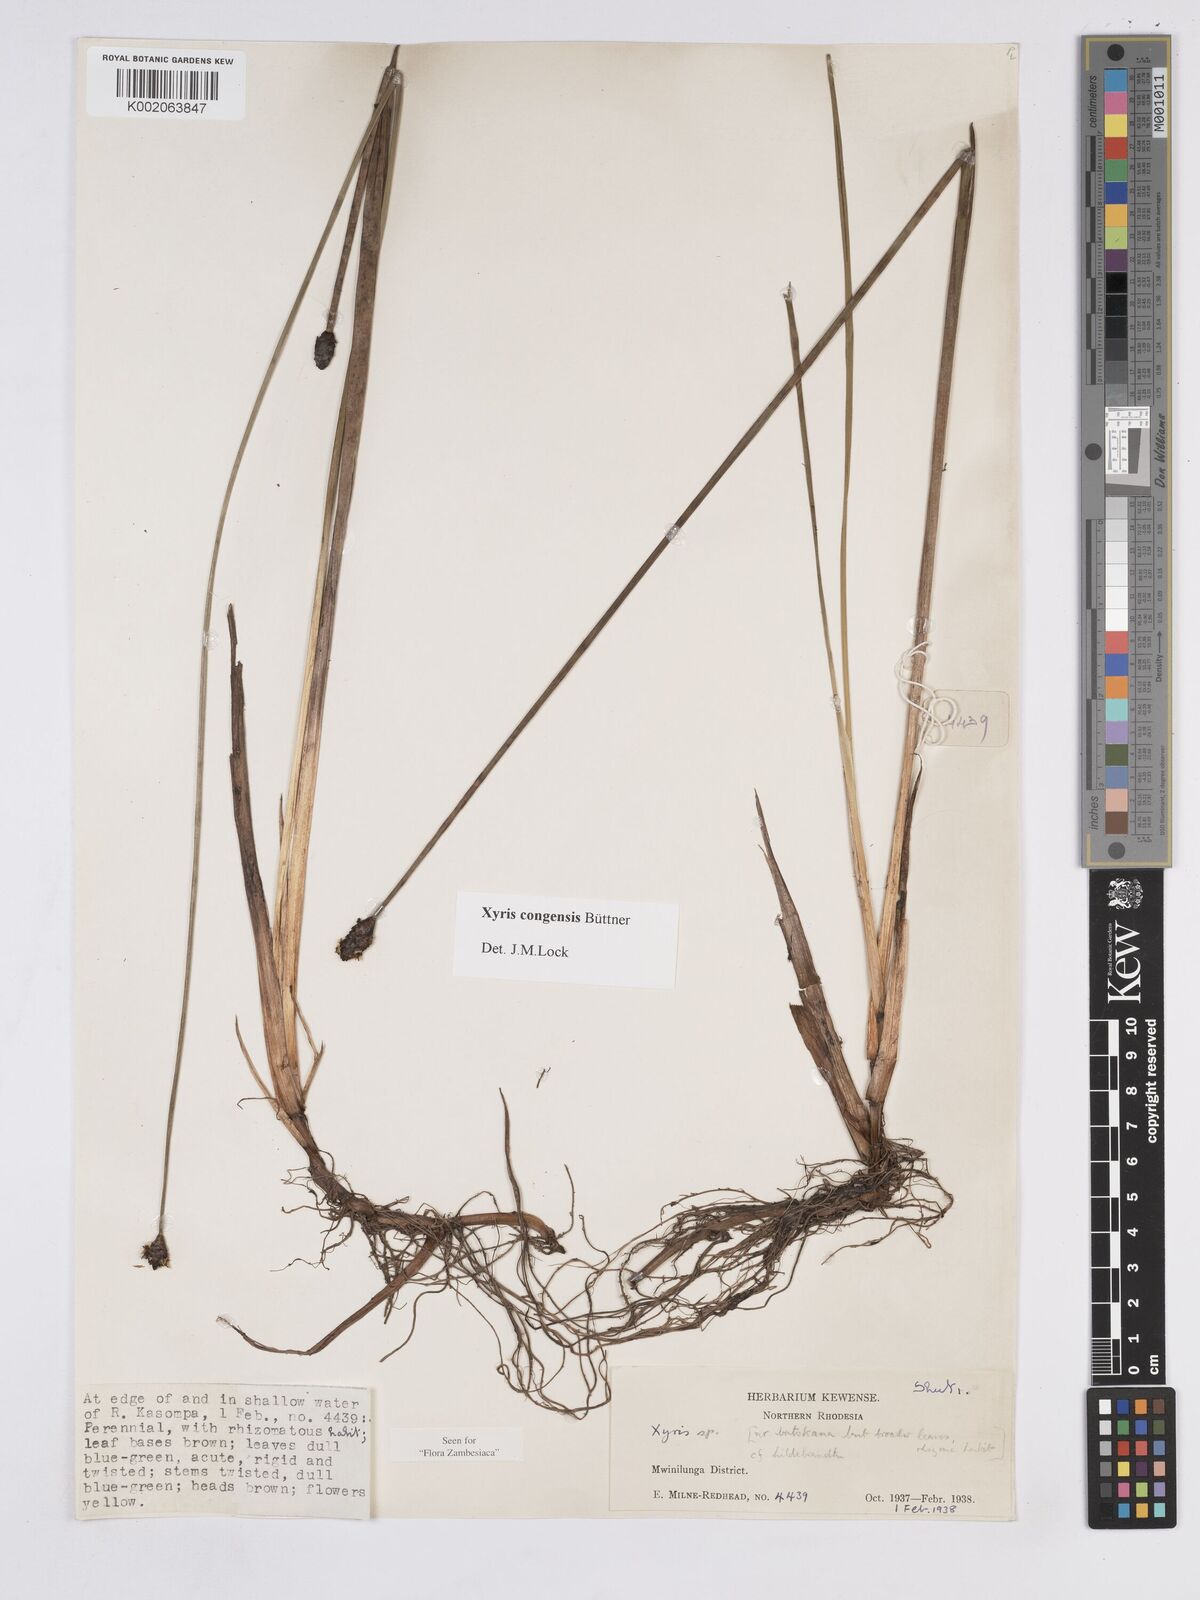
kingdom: Plantae
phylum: Tracheophyta
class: Liliopsida
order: Poales
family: Xyridaceae
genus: Xyris
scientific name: Xyris congensis
